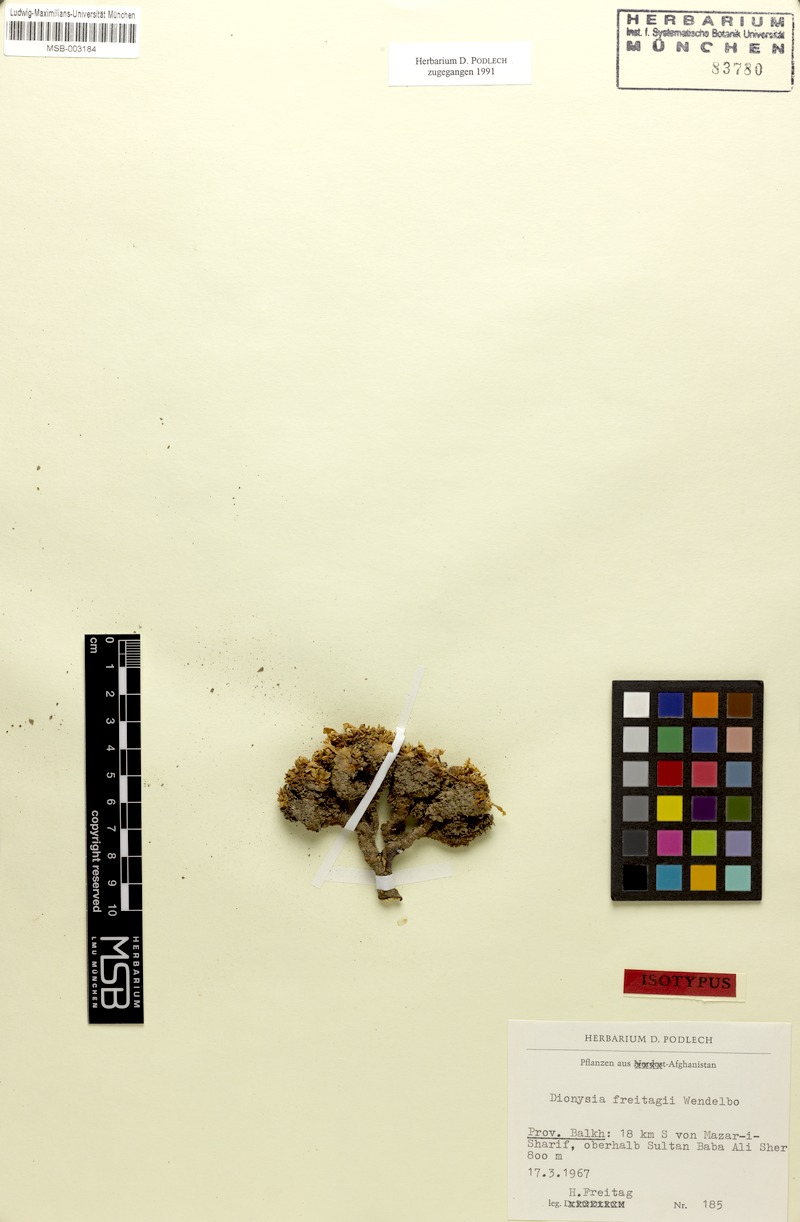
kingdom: Plantae
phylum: Tracheophyta
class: Magnoliopsida
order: Ericales
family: Primulaceae
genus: Dionysia
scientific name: Dionysia freitagii
